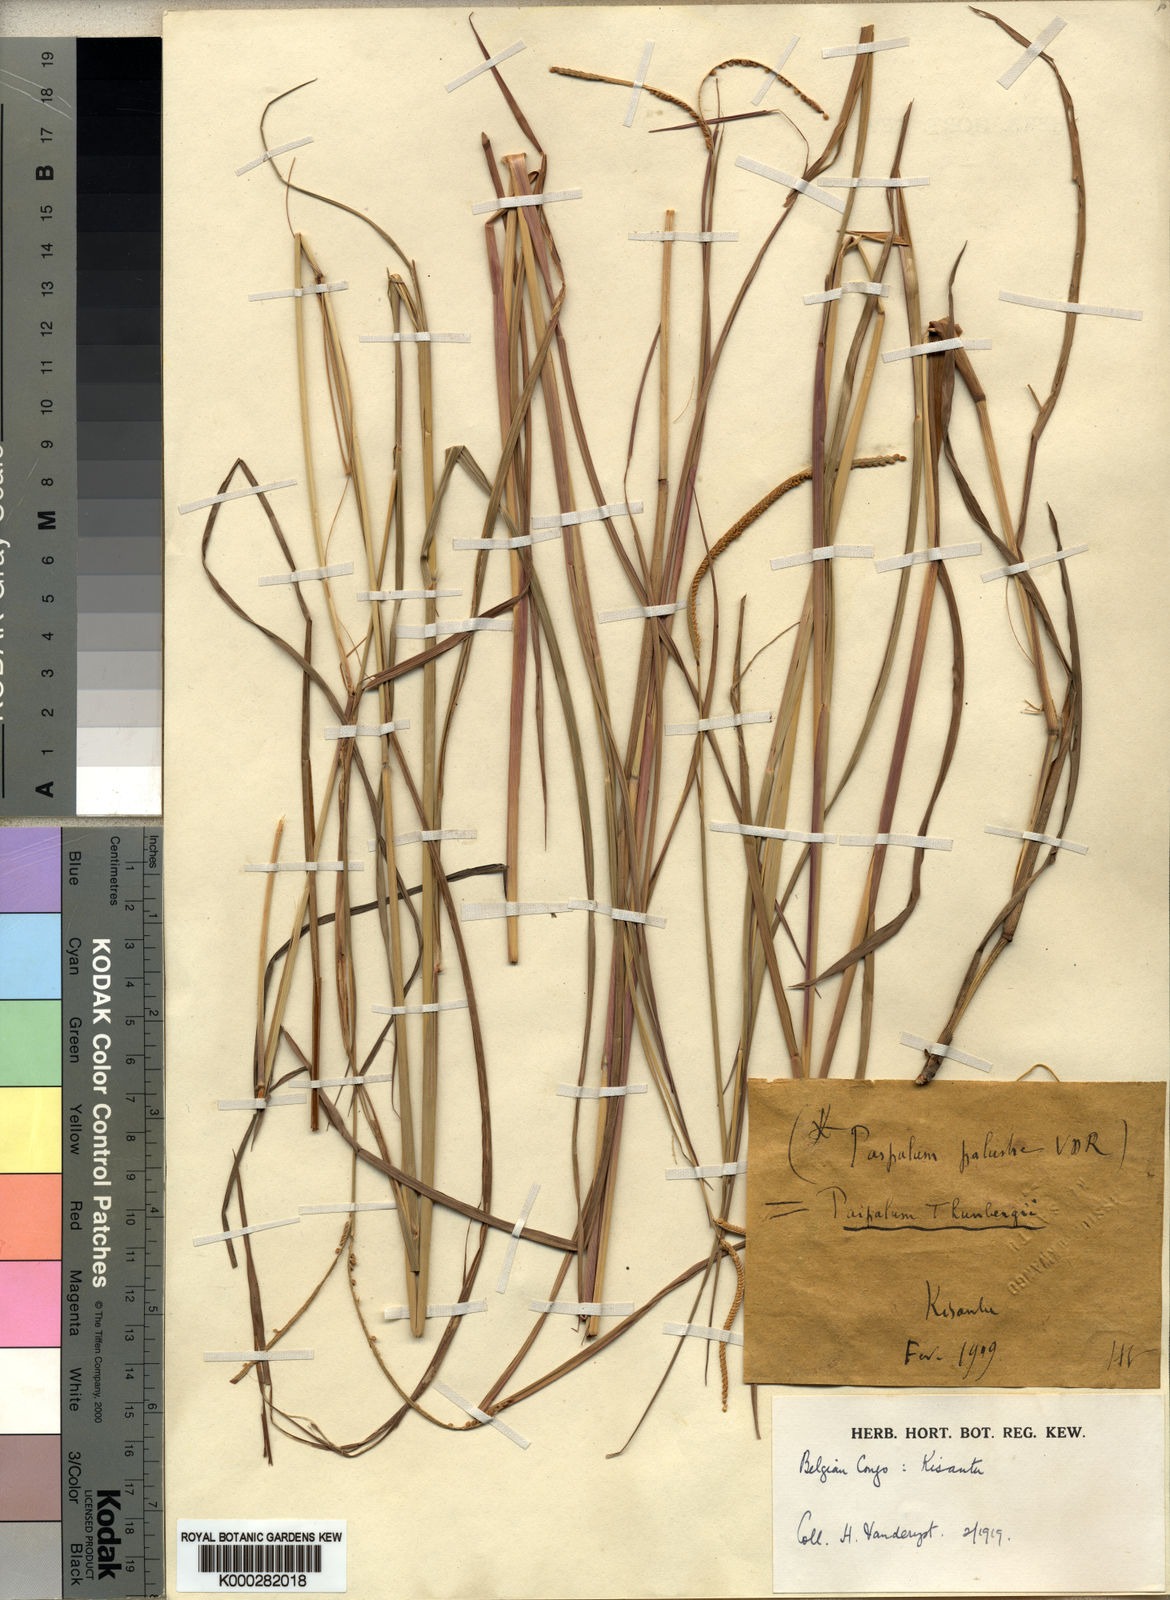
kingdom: Plantae
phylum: Tracheophyta
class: Liliopsida
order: Poales
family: Poaceae
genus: Paspalum
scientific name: Paspalum thunbergii
